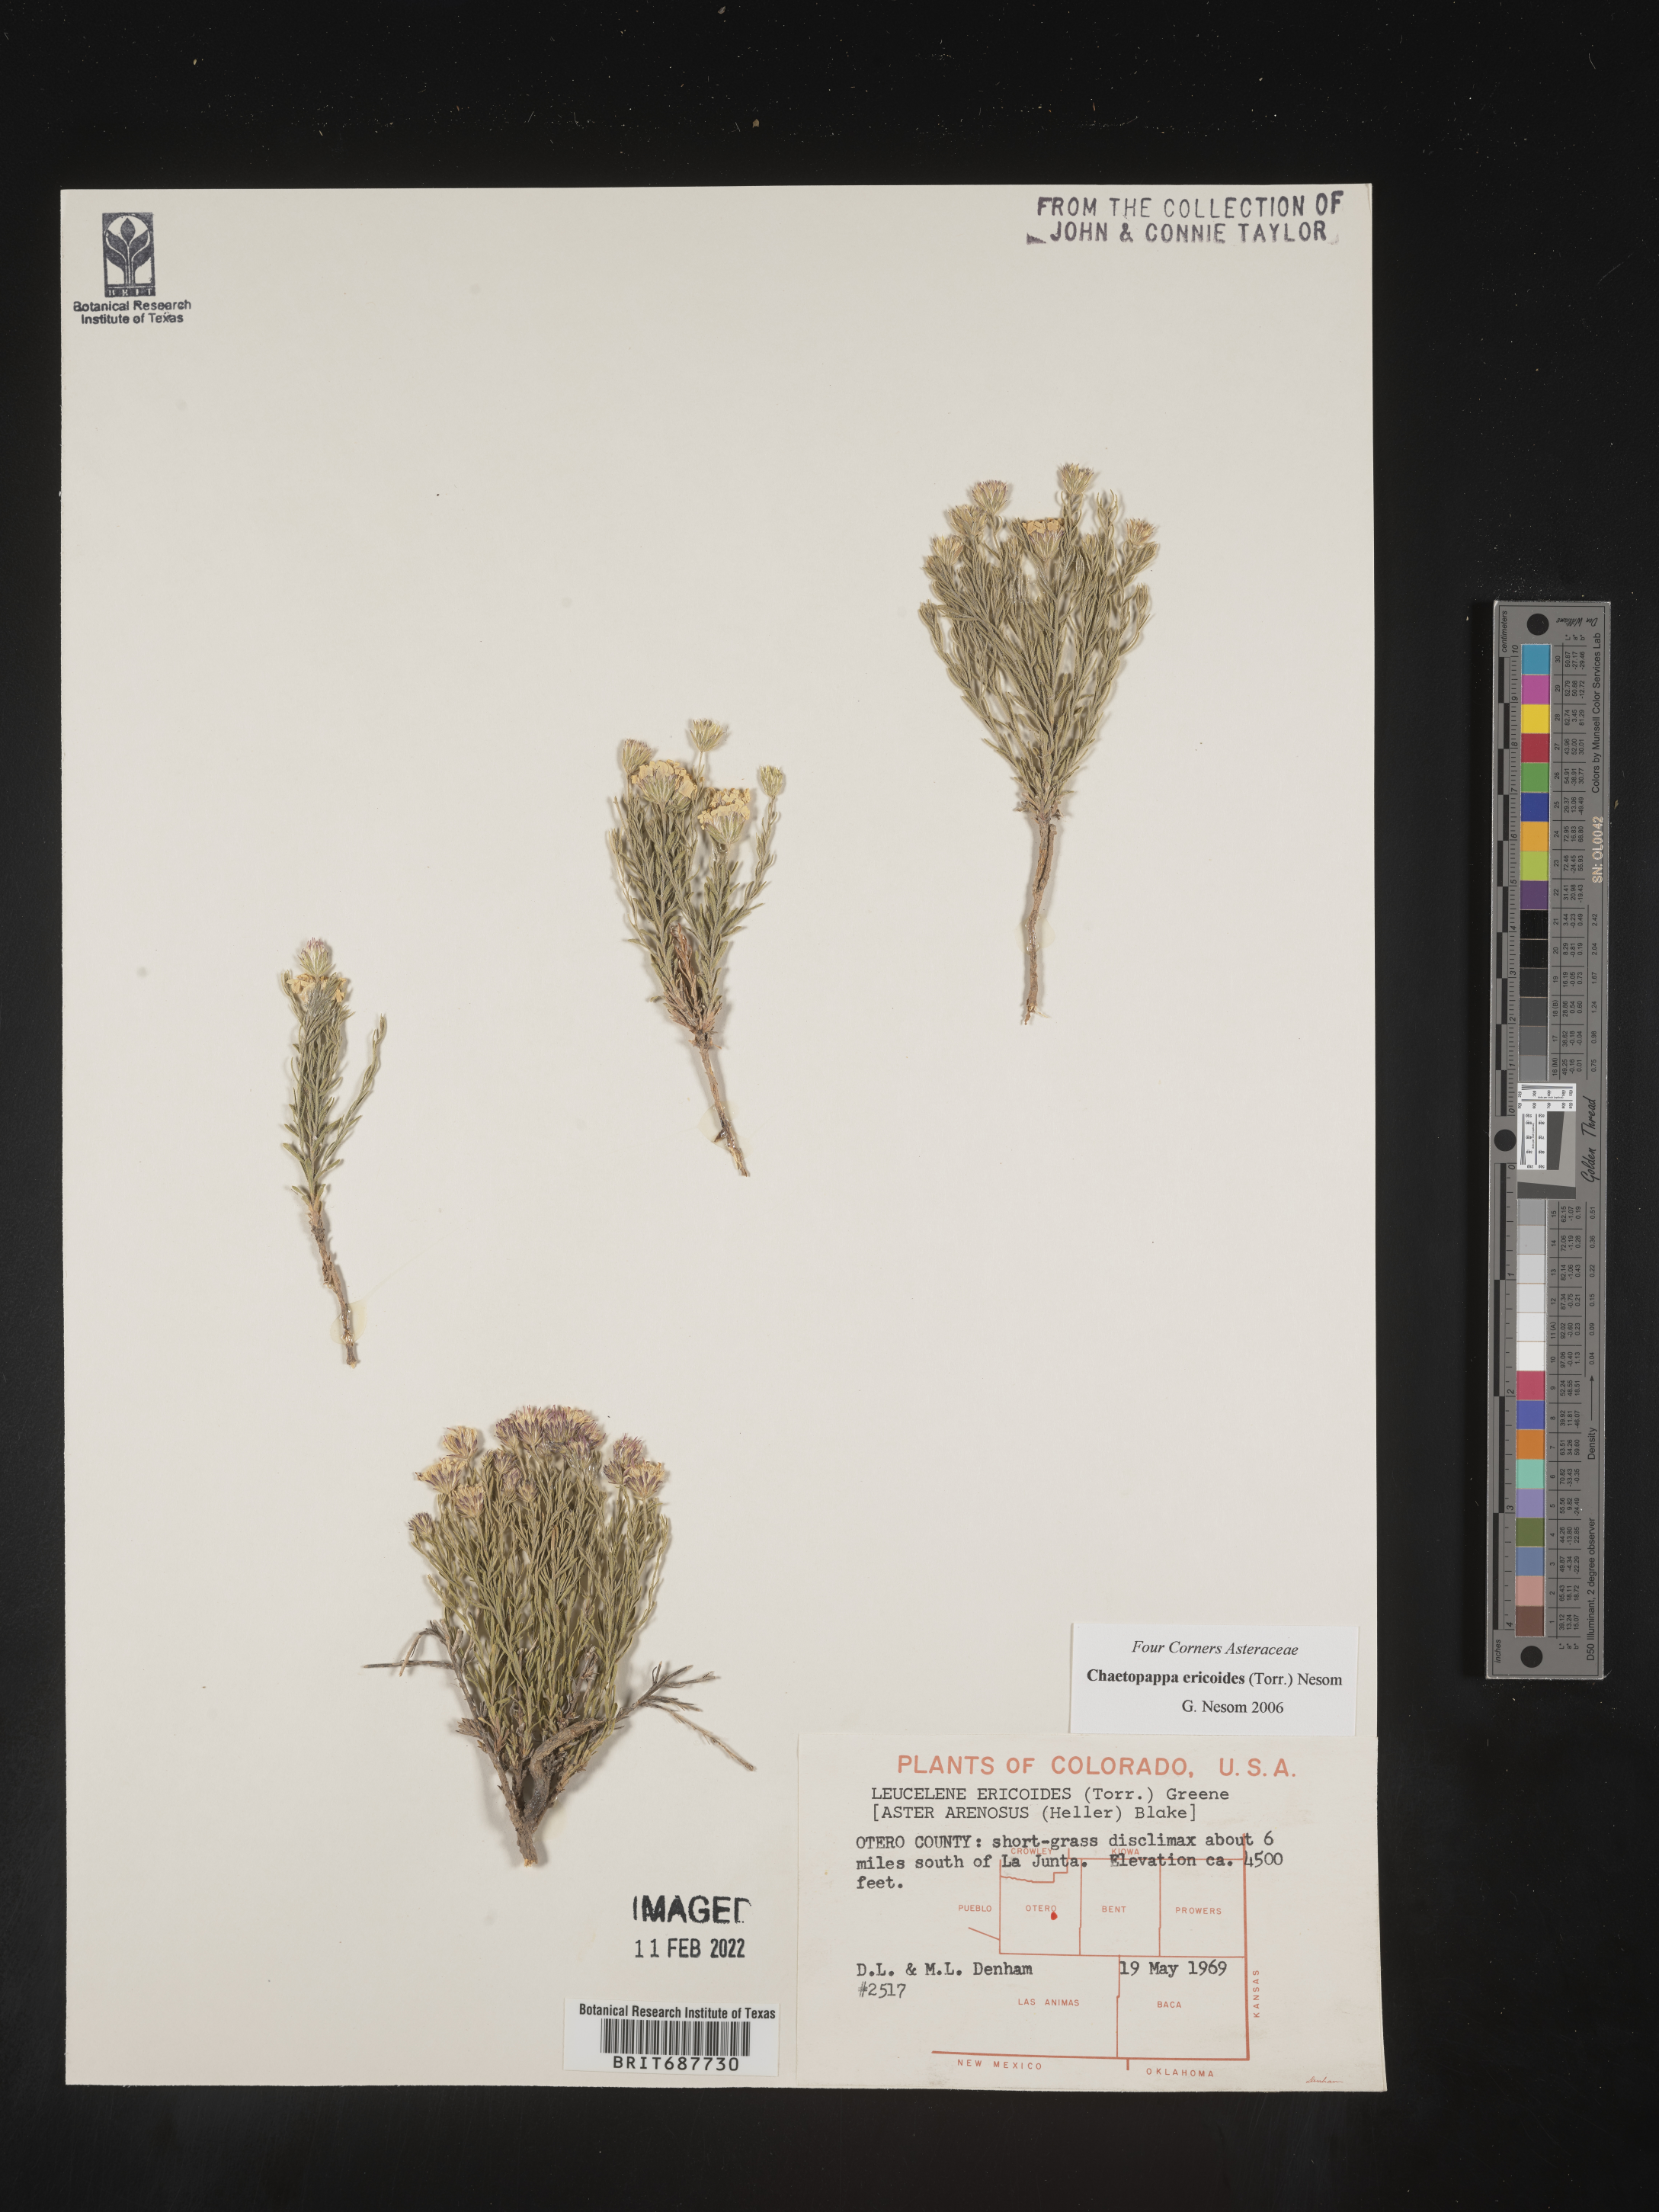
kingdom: Plantae
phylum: Tracheophyta
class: Magnoliopsida
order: Asterales
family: Asteraceae
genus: Chaetopappa
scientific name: Chaetopappa ericoides
